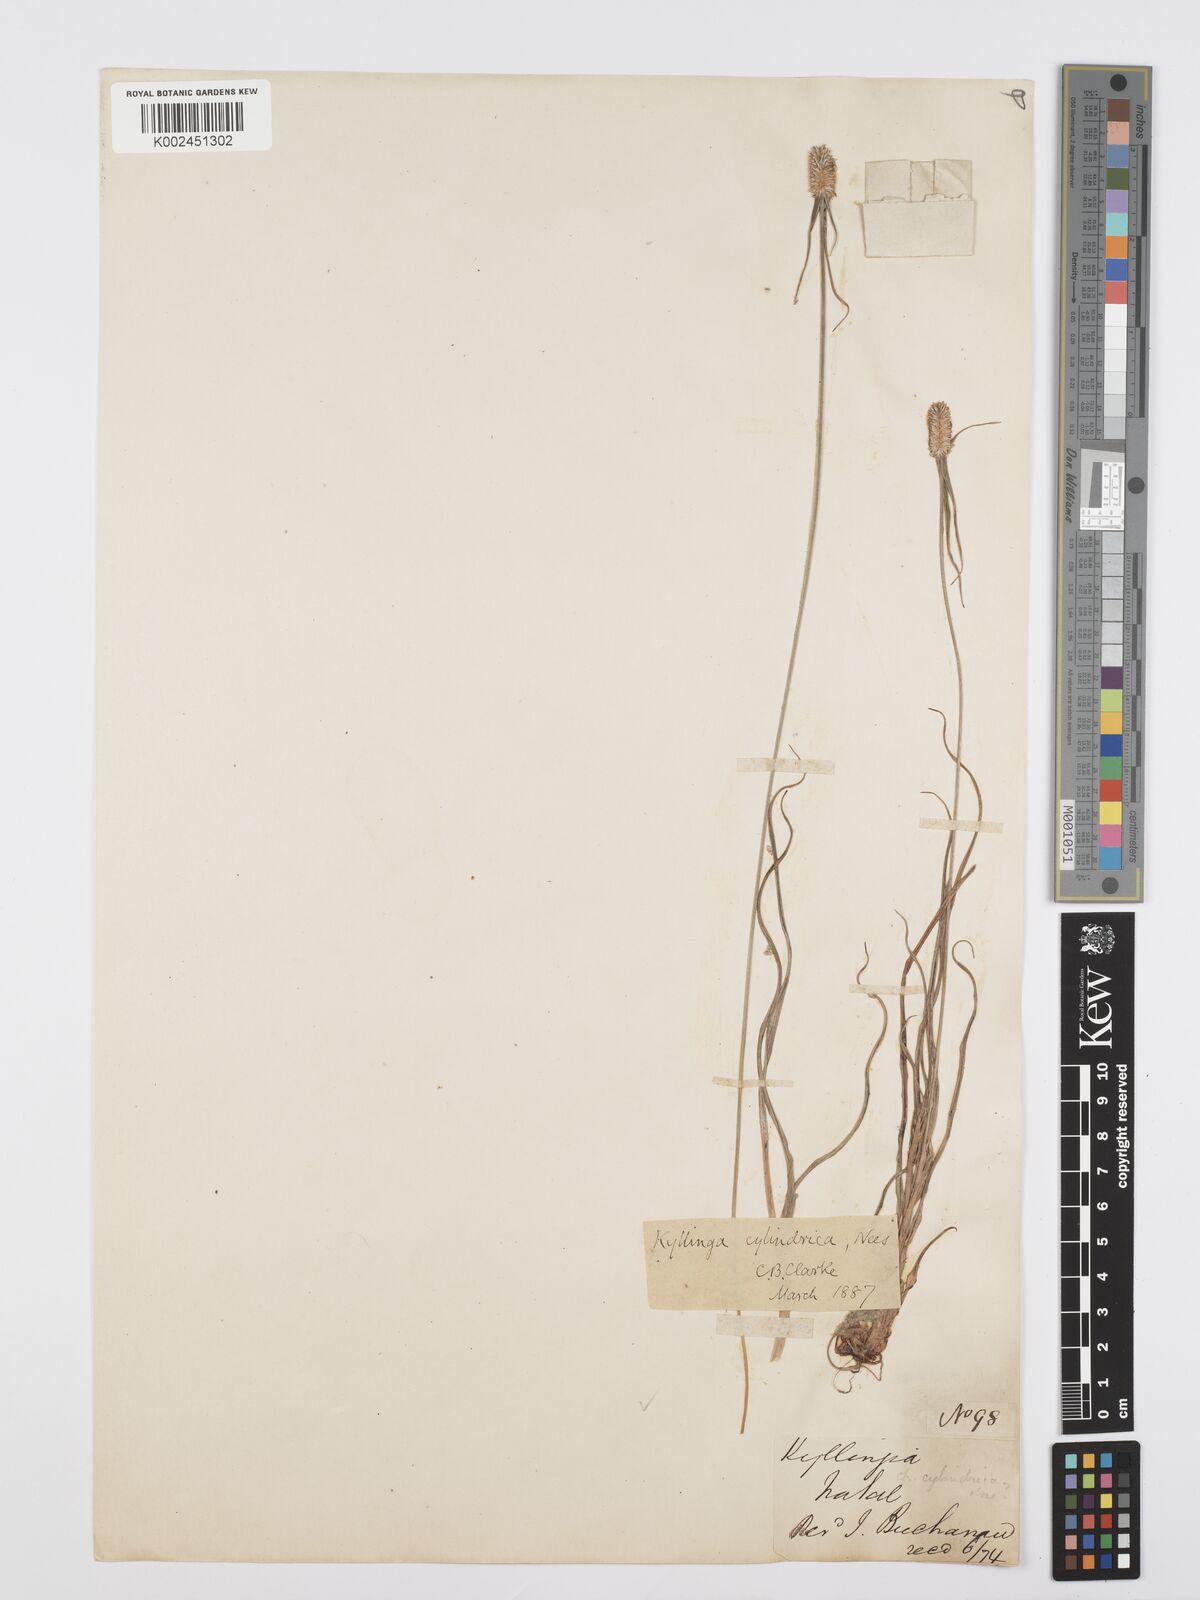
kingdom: Plantae
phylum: Tracheophyta
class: Liliopsida
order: Poales
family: Cyperaceae
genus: Cyperus
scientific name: Cyperus
